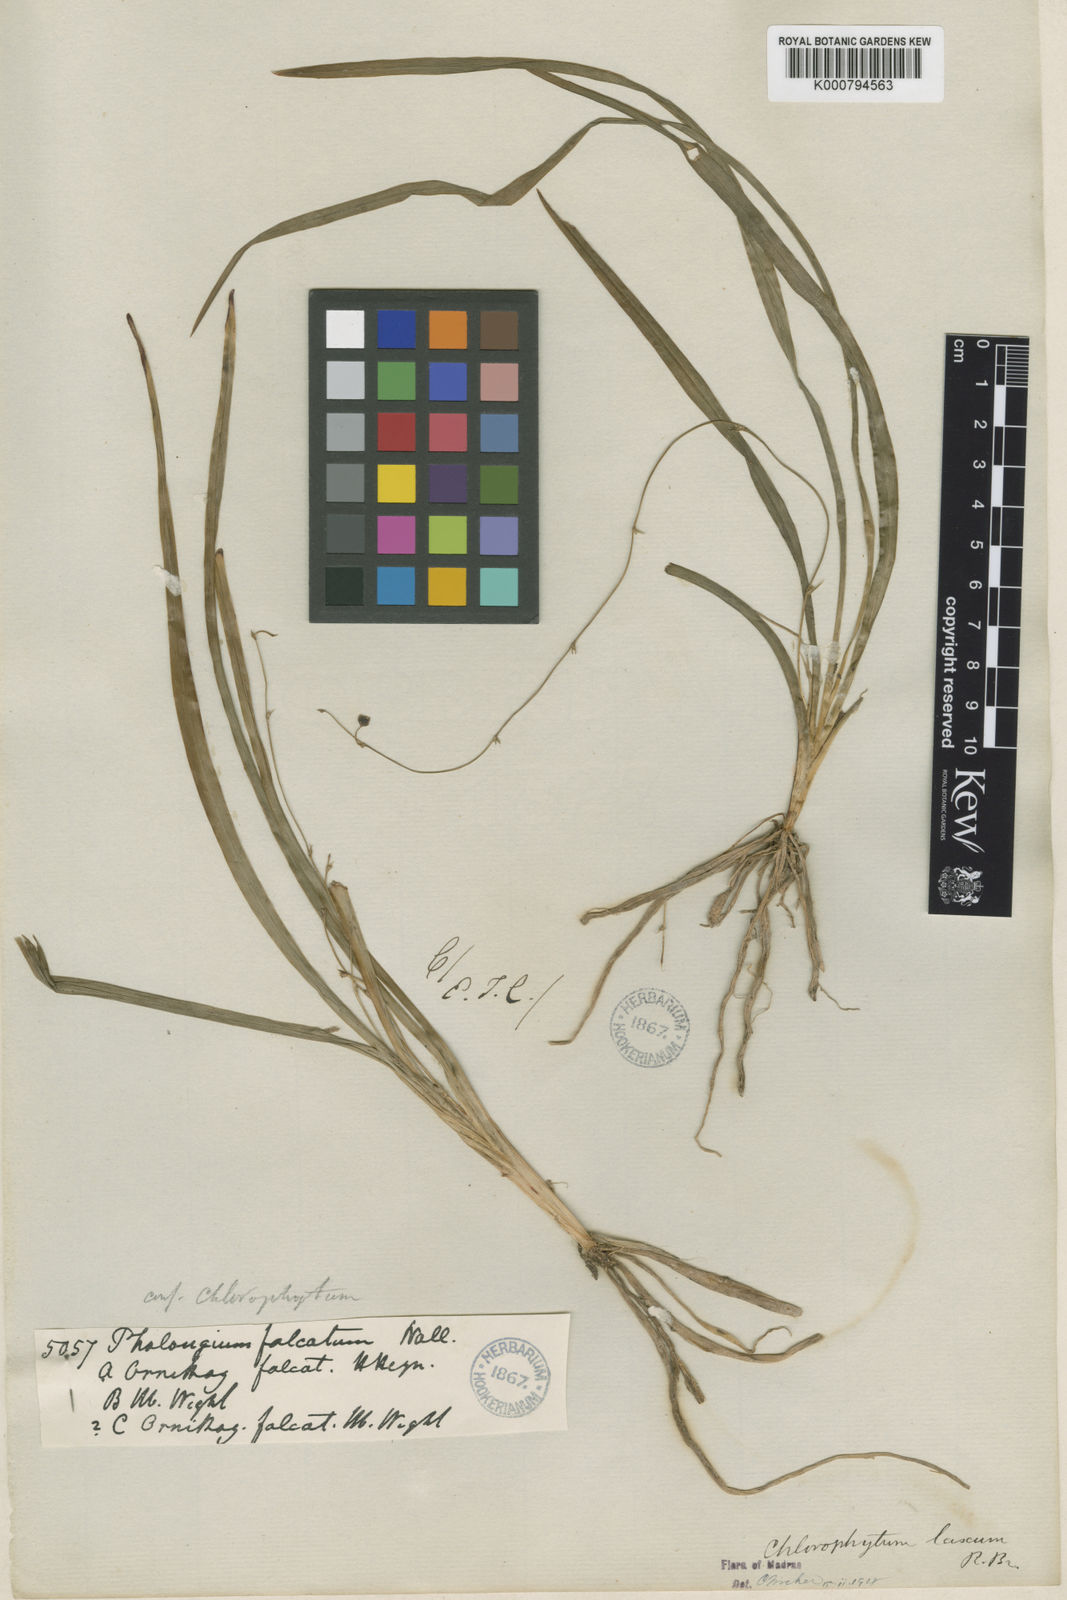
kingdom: Plantae
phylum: Tracheophyta
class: Liliopsida
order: Asparagales
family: Asparagaceae
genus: Chlorophytum
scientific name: Chlorophytum laxum
